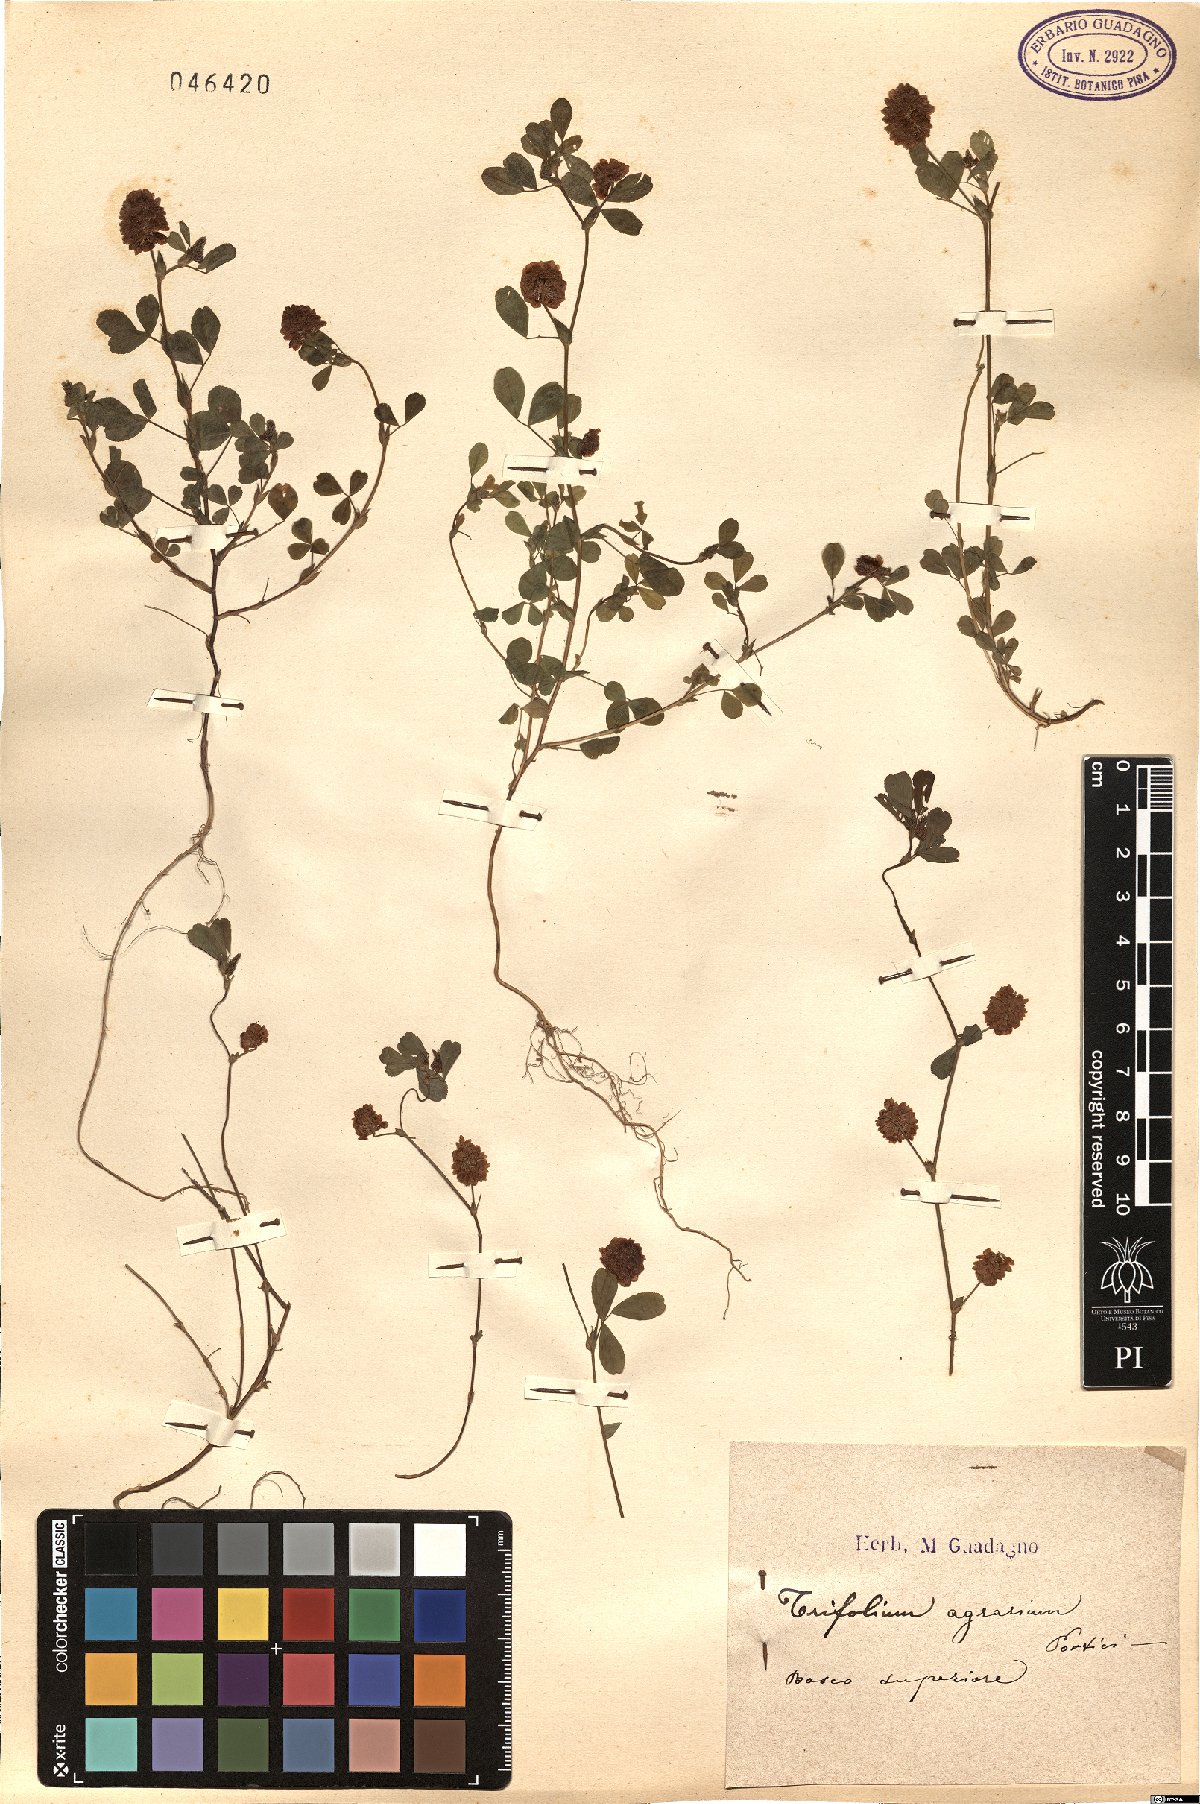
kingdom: Plantae
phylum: Tracheophyta
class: Magnoliopsida
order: Fabales
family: Fabaceae
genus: Trifolium
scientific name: Trifolium aureum
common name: Golden clover
